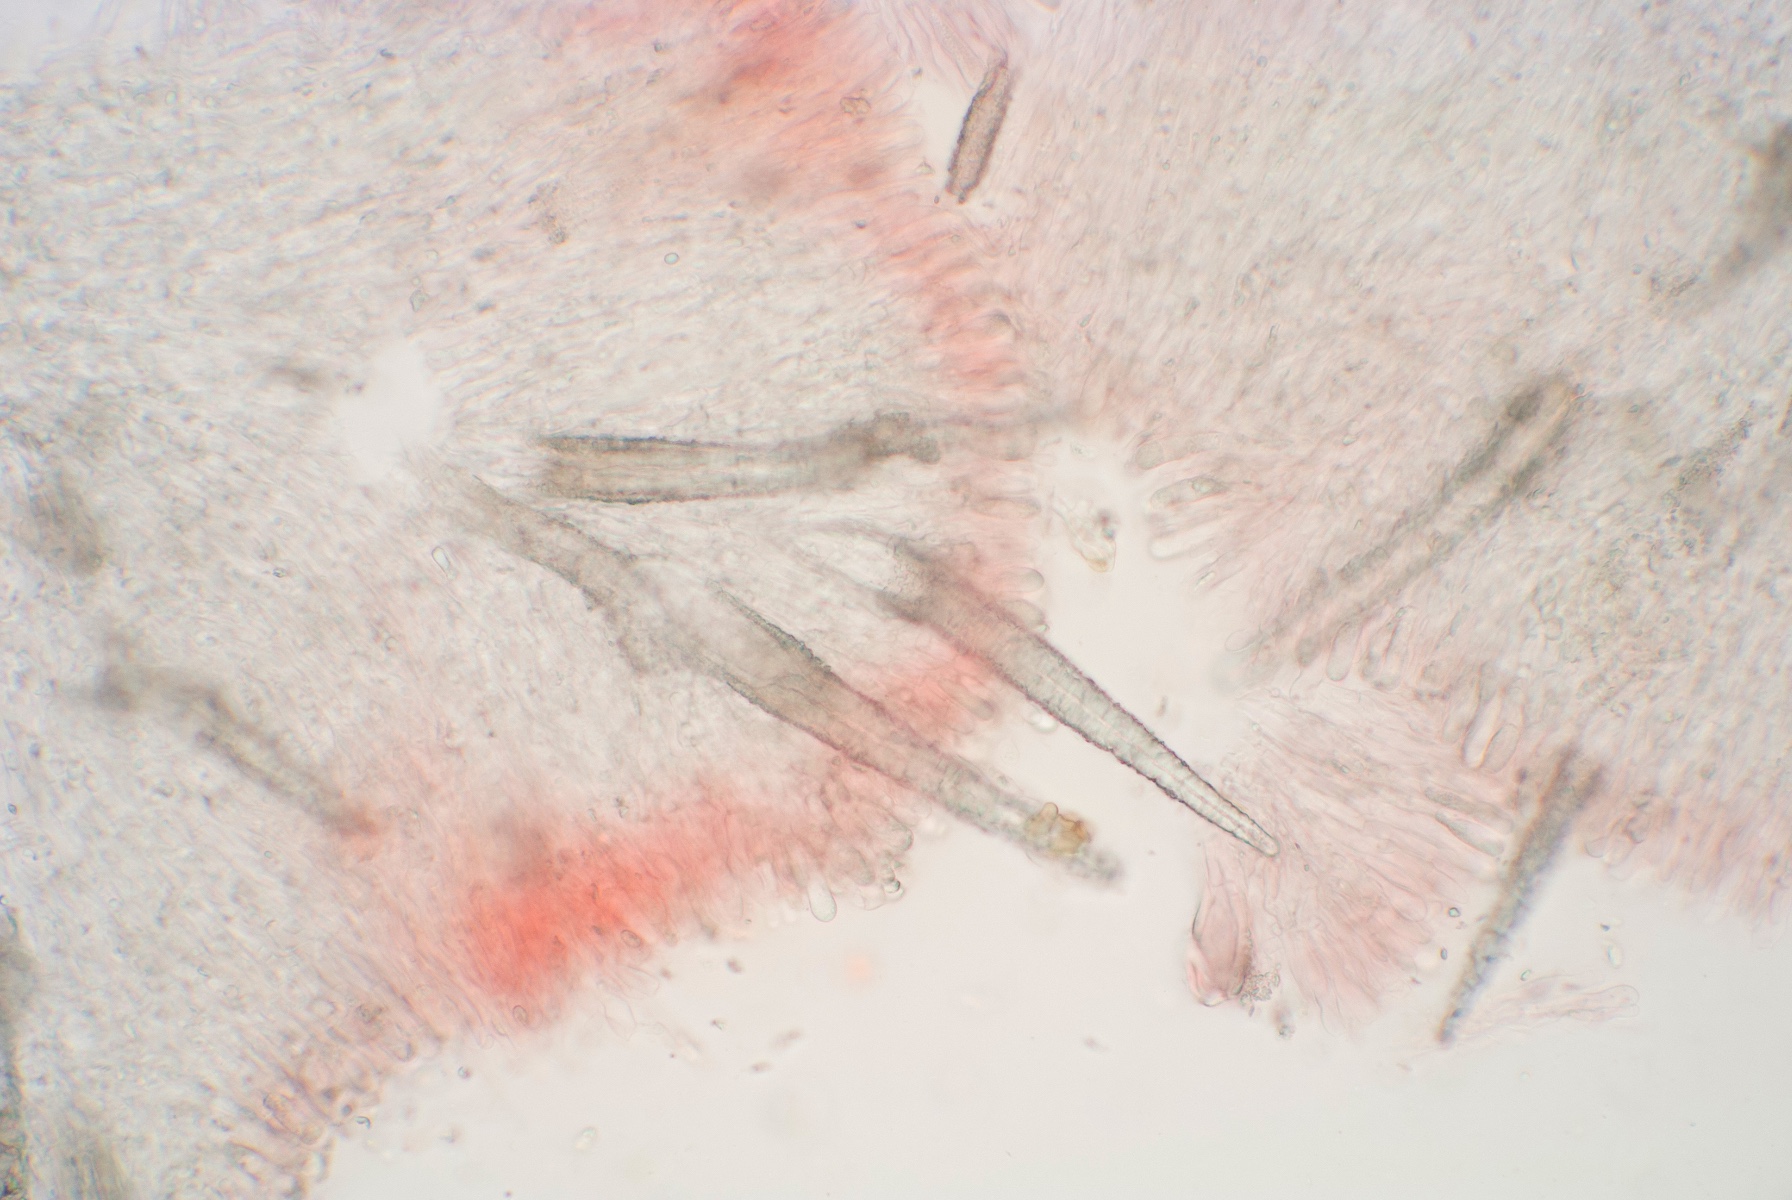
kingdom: Fungi
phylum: Basidiomycota
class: Agaricomycetes
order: Hymenochaetales
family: Rickenellaceae
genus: Peniophorella
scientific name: Peniophorella pubera
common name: dunet kalkskind
